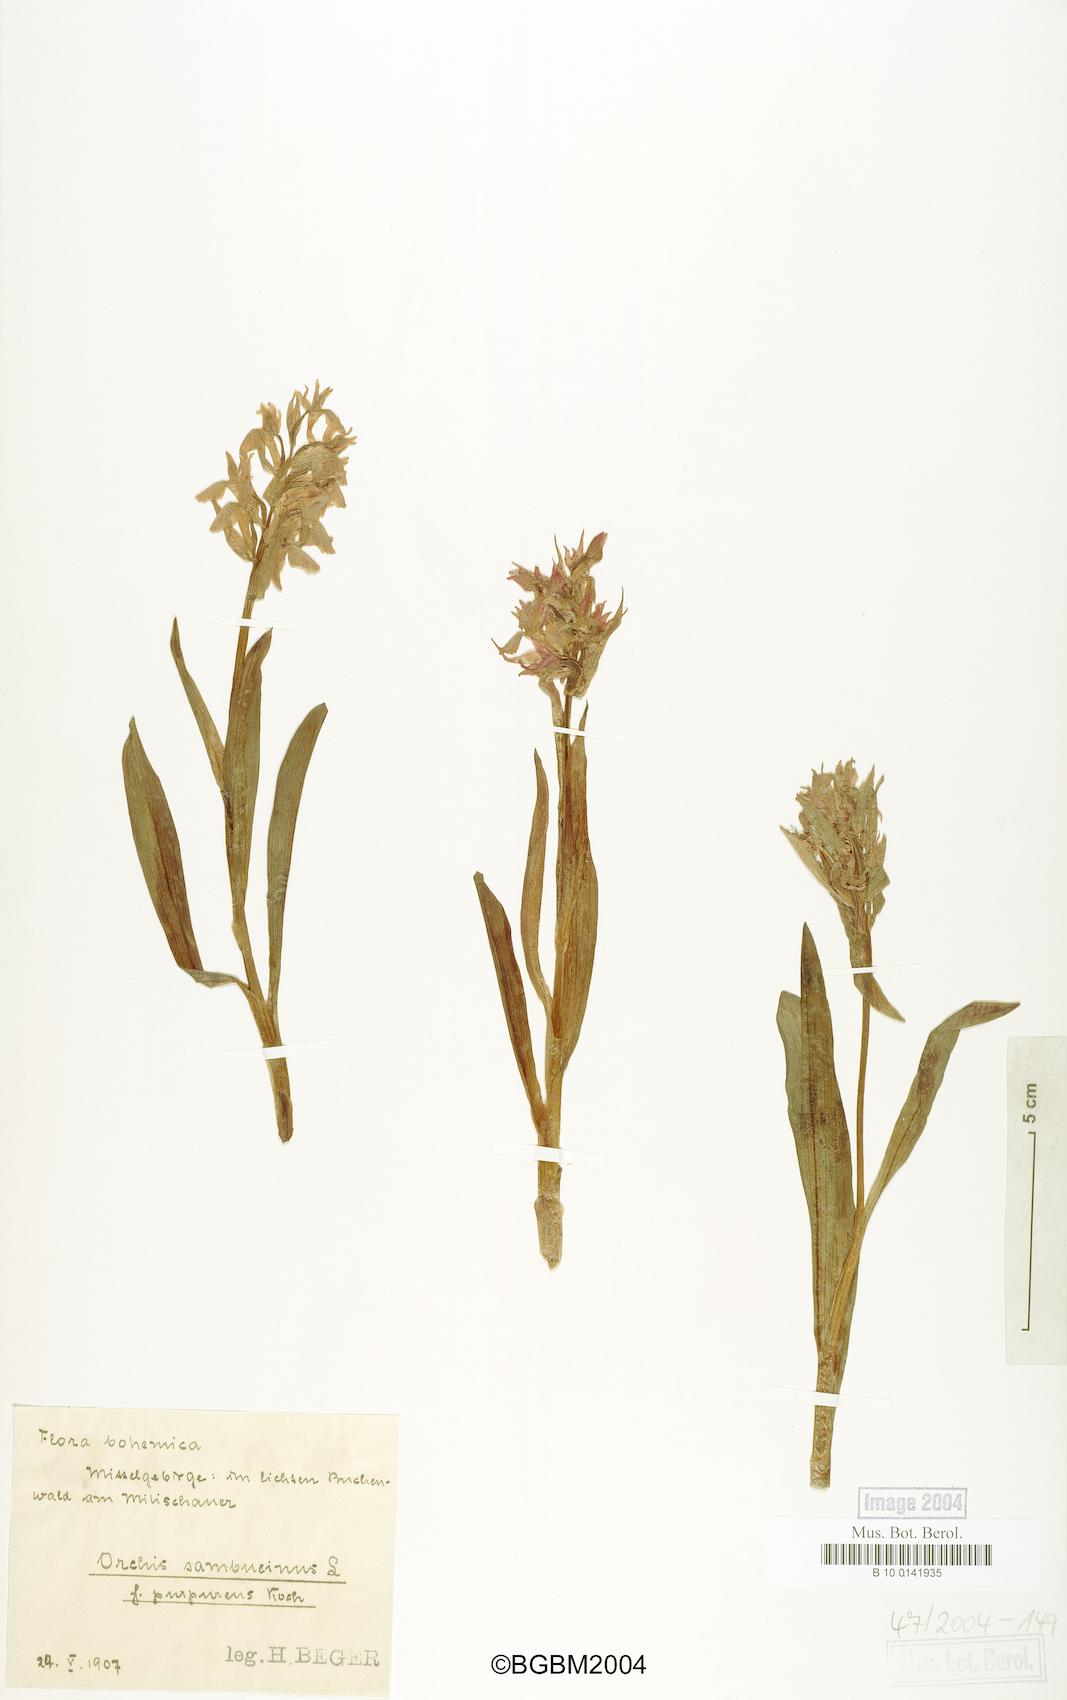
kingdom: Plantae
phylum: Tracheophyta
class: Liliopsida
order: Asparagales
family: Orchidaceae
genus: Dactylorhiza
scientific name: Dactylorhiza sambucina
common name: Elder-flowered orchid
